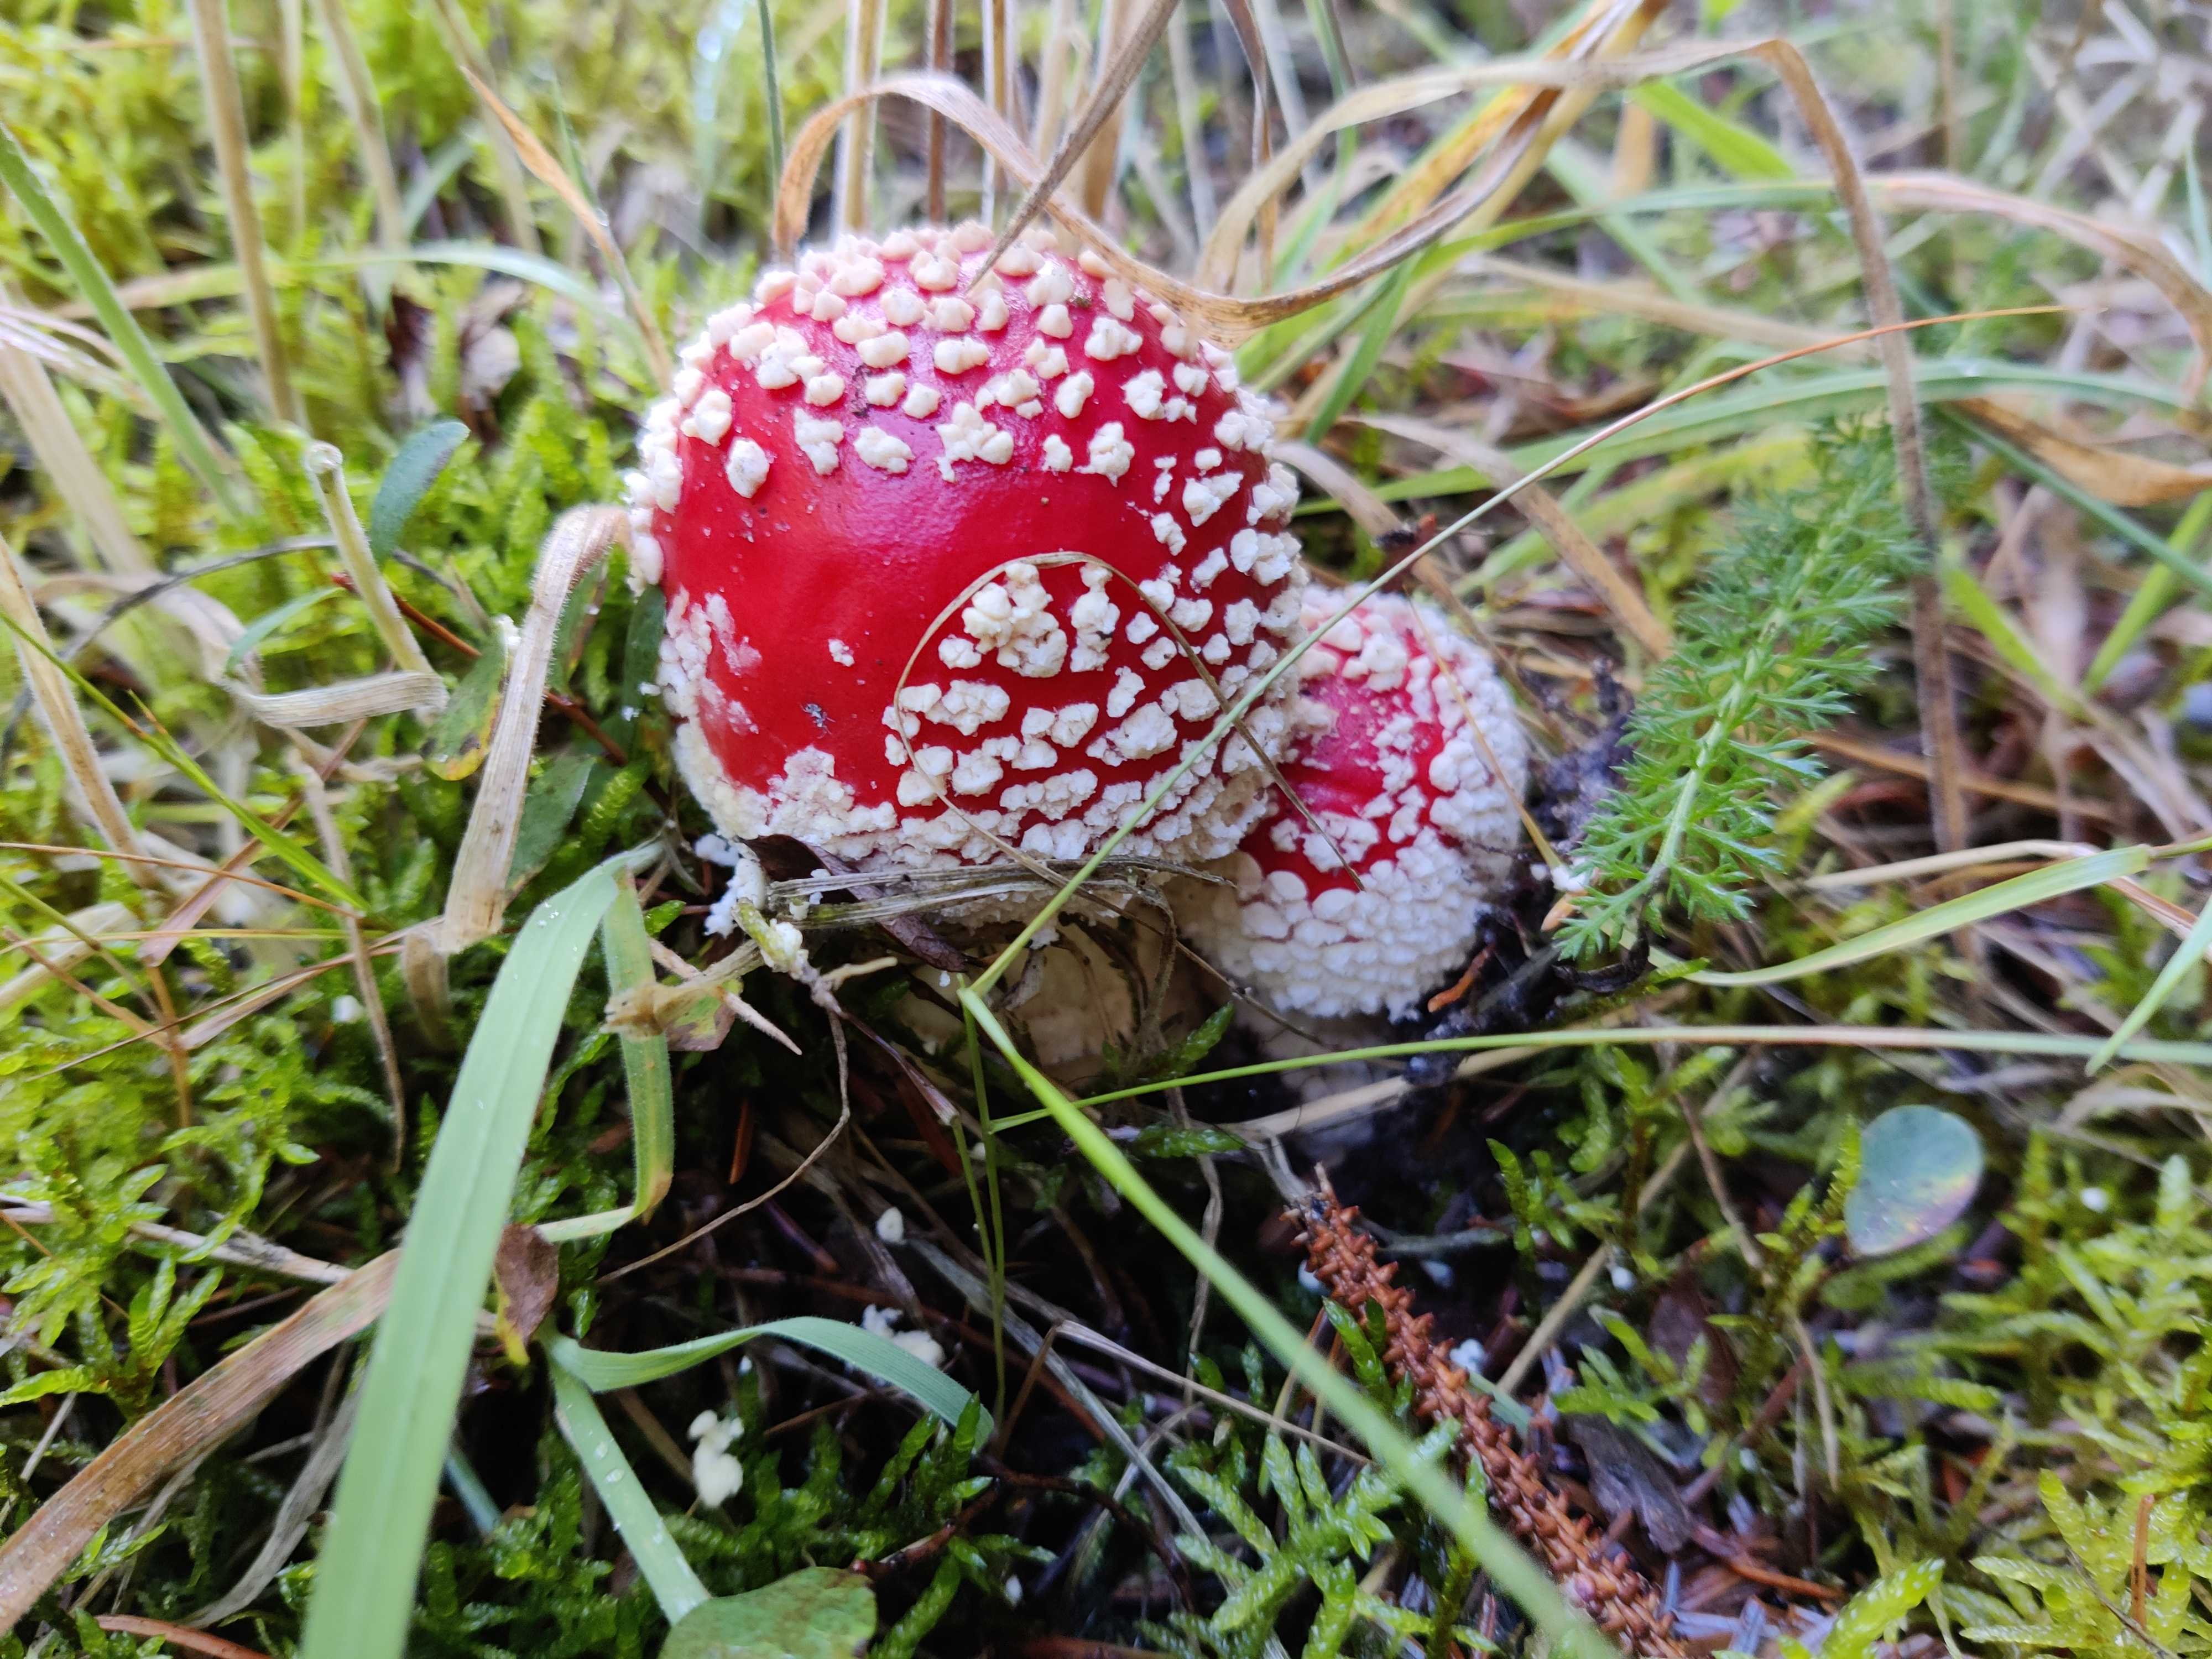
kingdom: Fungi
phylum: Basidiomycota
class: Agaricomycetes
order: Agaricales
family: Amanitaceae
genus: Amanita
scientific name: Amanita muscaria
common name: rød fluesvamp
